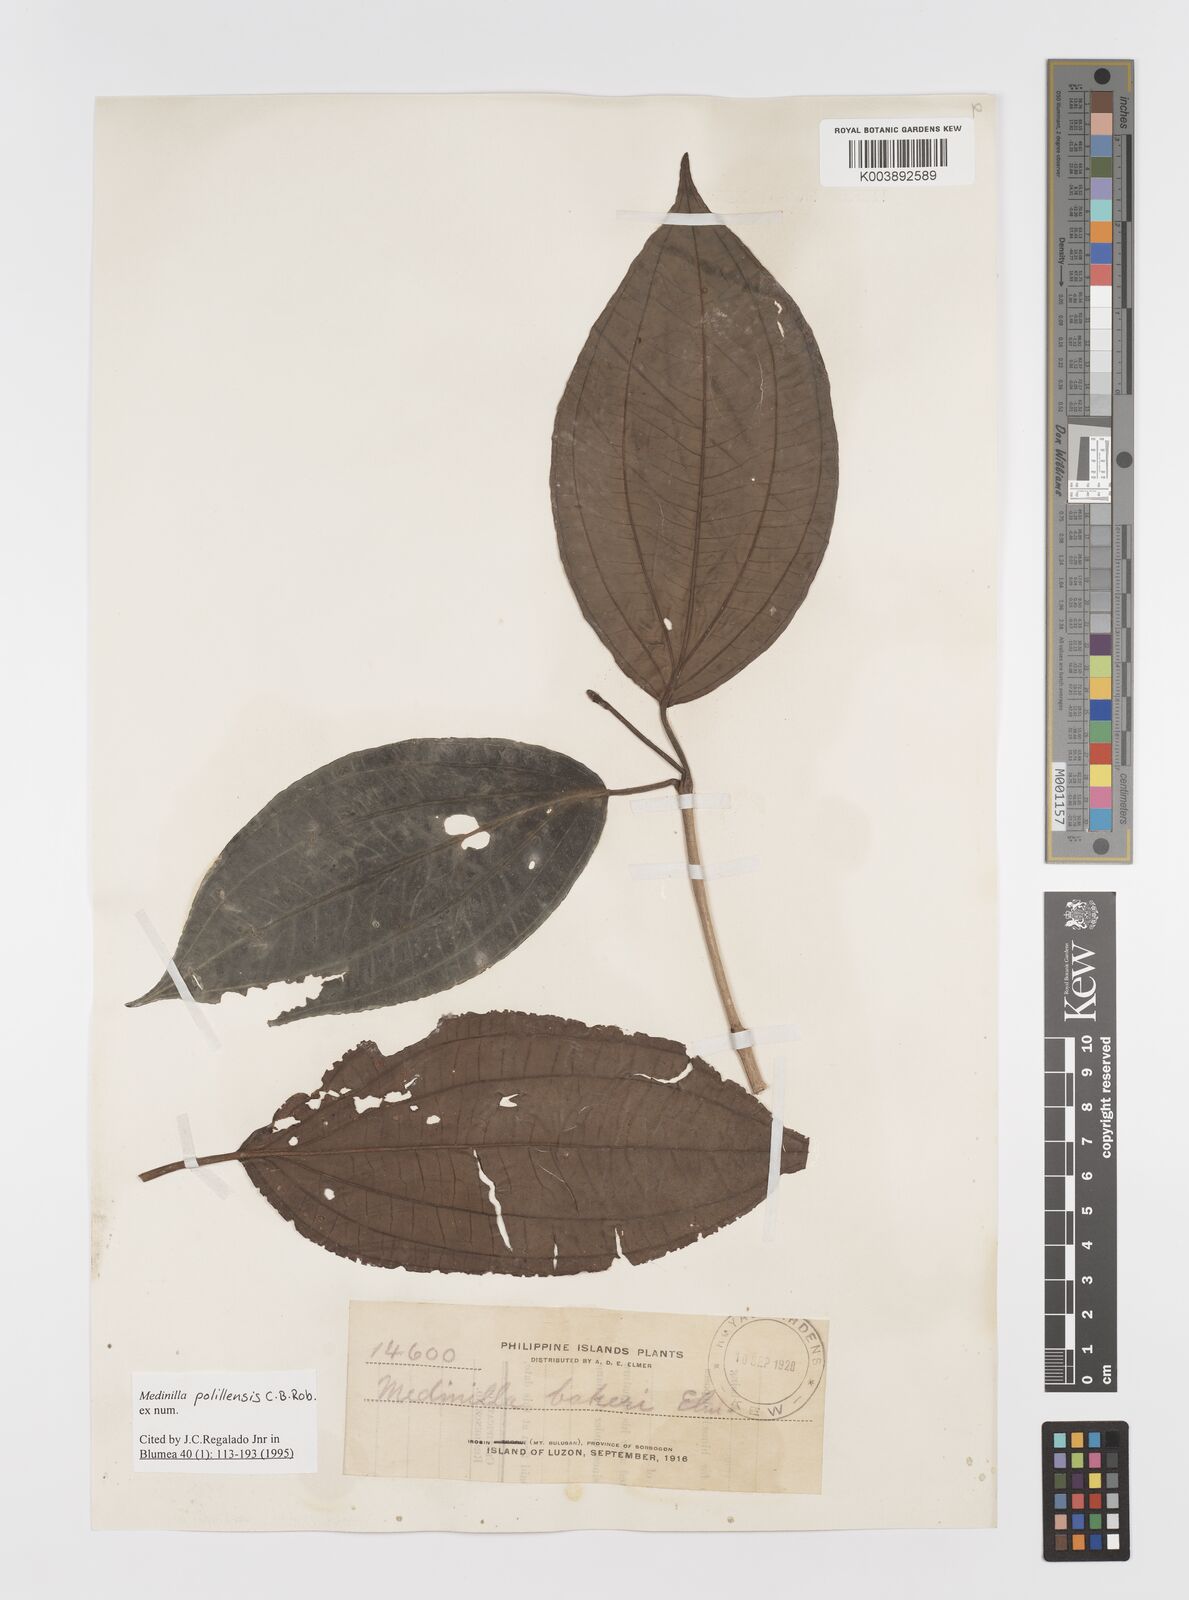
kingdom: Plantae
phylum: Tracheophyta
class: Magnoliopsida
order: Myrtales
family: Melastomataceae
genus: Medinilla
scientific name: Medinilla polillensis
